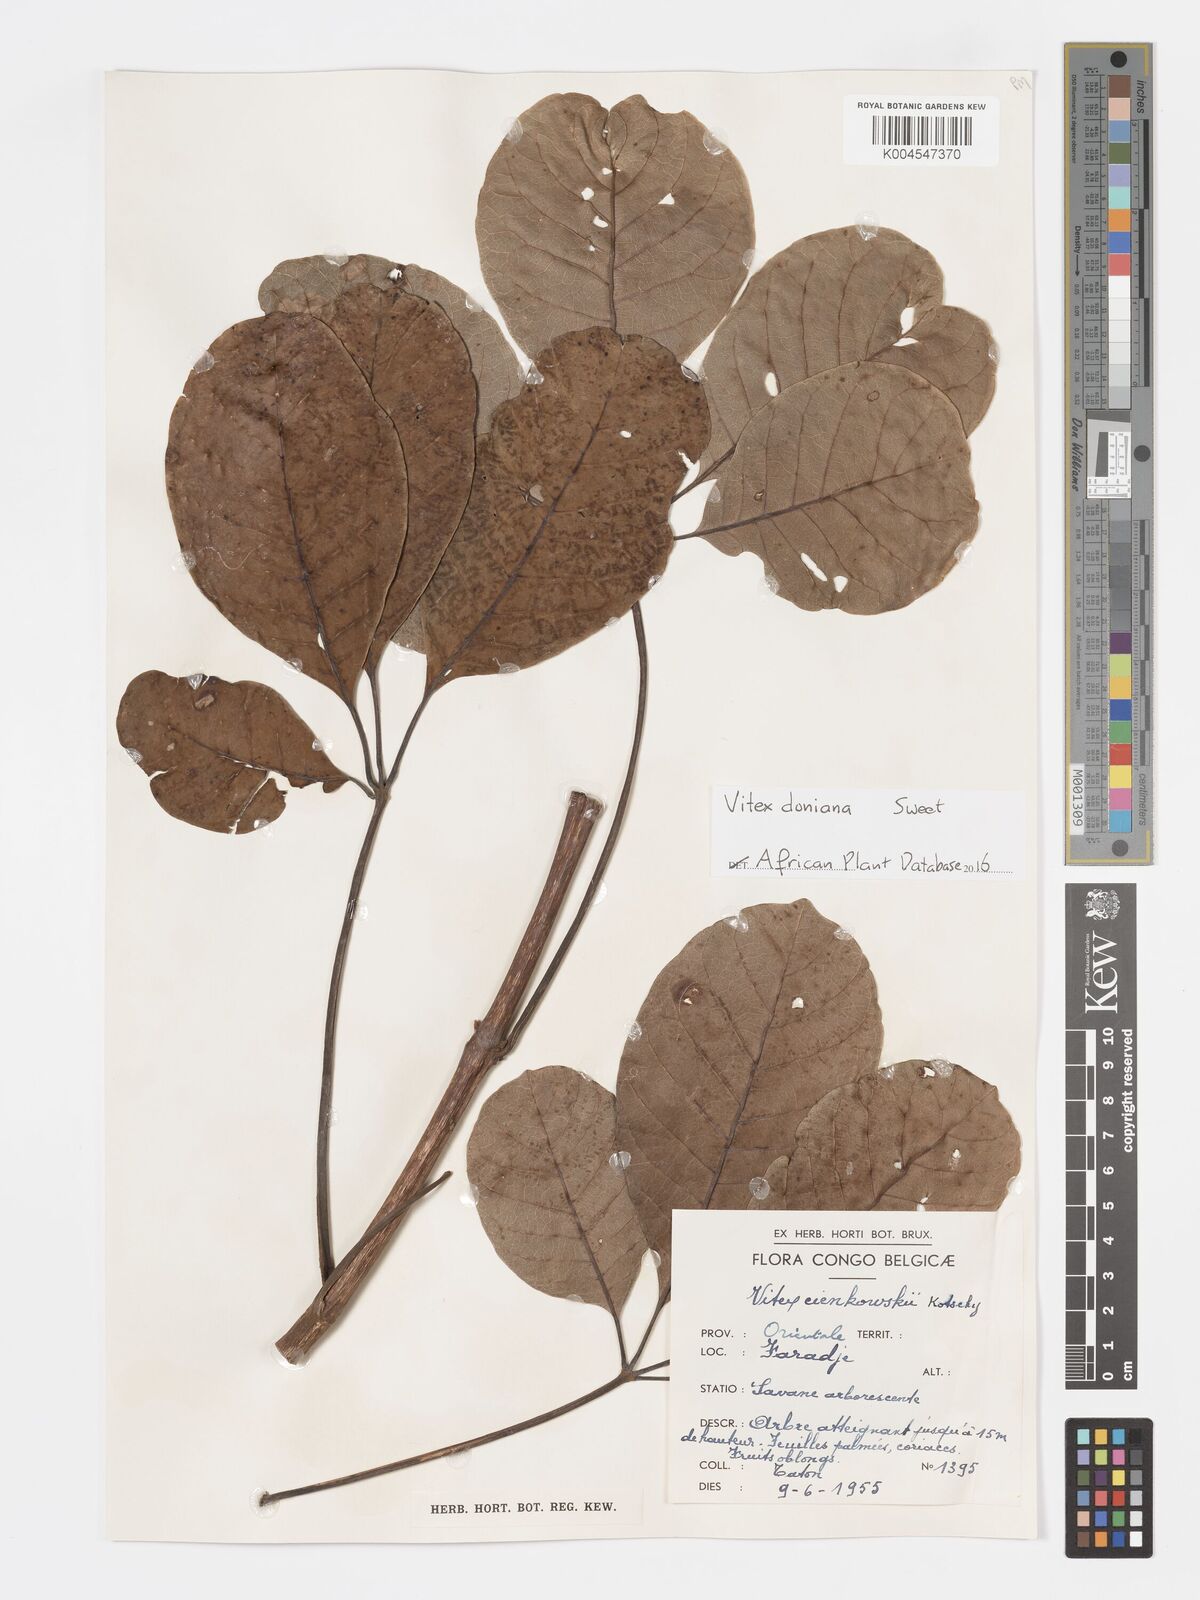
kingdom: Plantae
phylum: Tracheophyta
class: Magnoliopsida
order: Lamiales
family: Lamiaceae
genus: Vitex
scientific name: Vitex doniana
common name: Black plum
